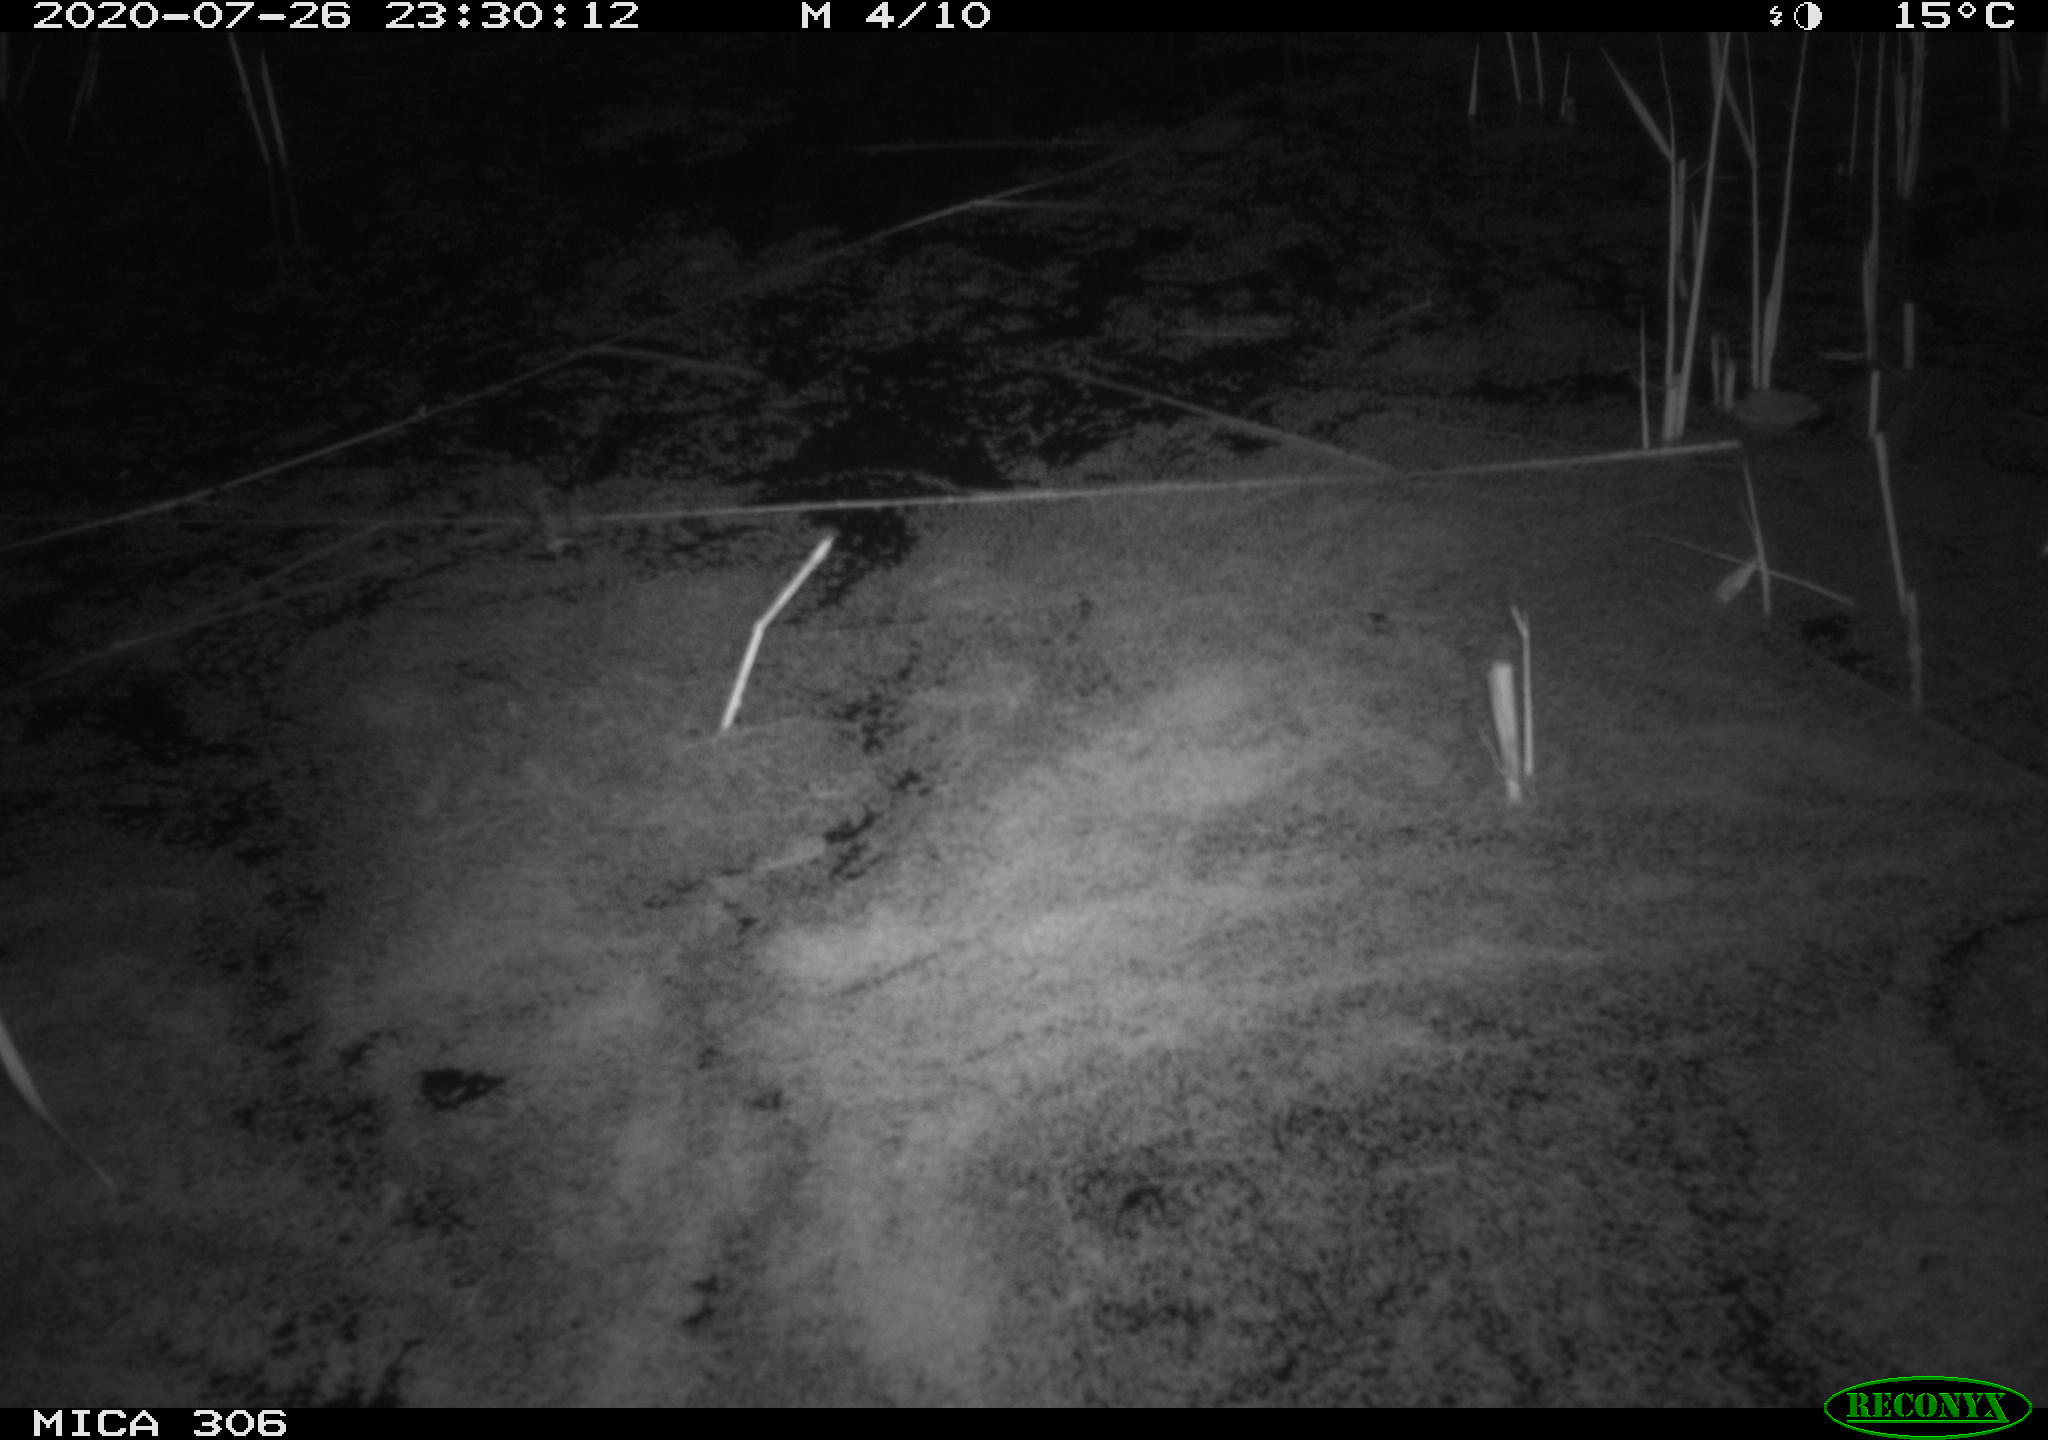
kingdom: Animalia
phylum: Chordata
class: Mammalia
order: Rodentia
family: Cricetidae
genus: Ondatra
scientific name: Ondatra zibethicus
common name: Muskrat
